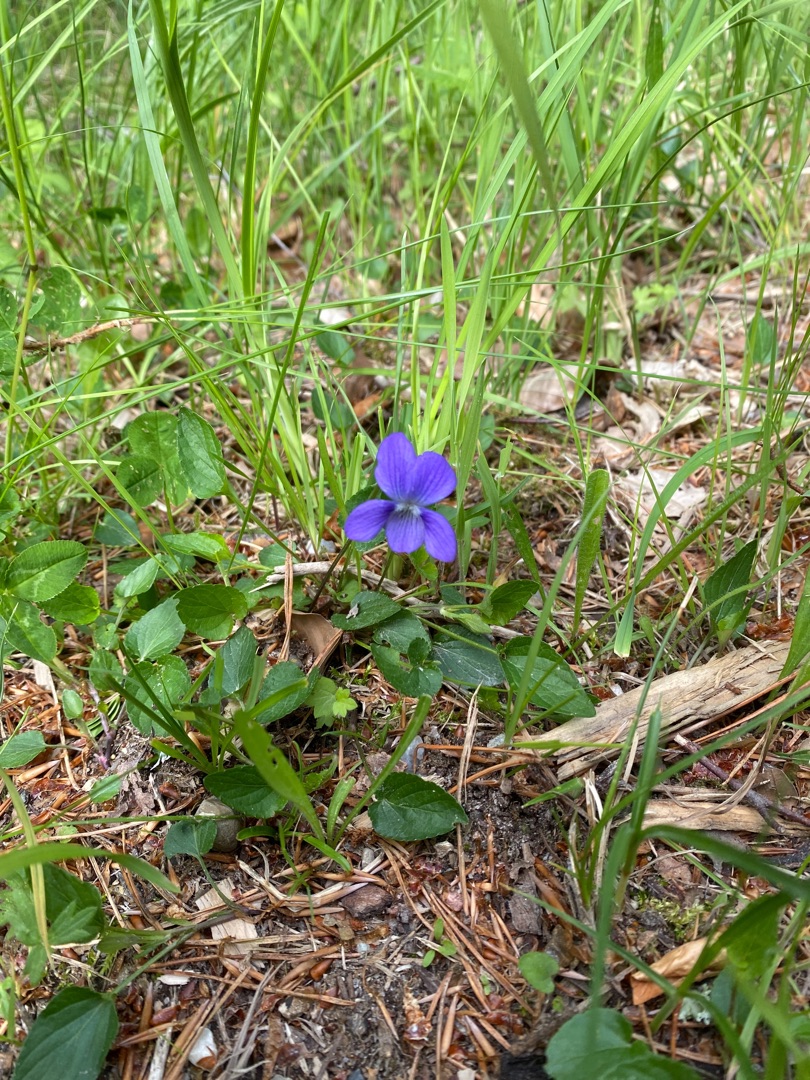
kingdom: Plantae
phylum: Tracheophyta
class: Magnoliopsida
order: Malpighiales
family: Violaceae
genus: Viola
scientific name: Viola canina
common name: Hunde-viol
